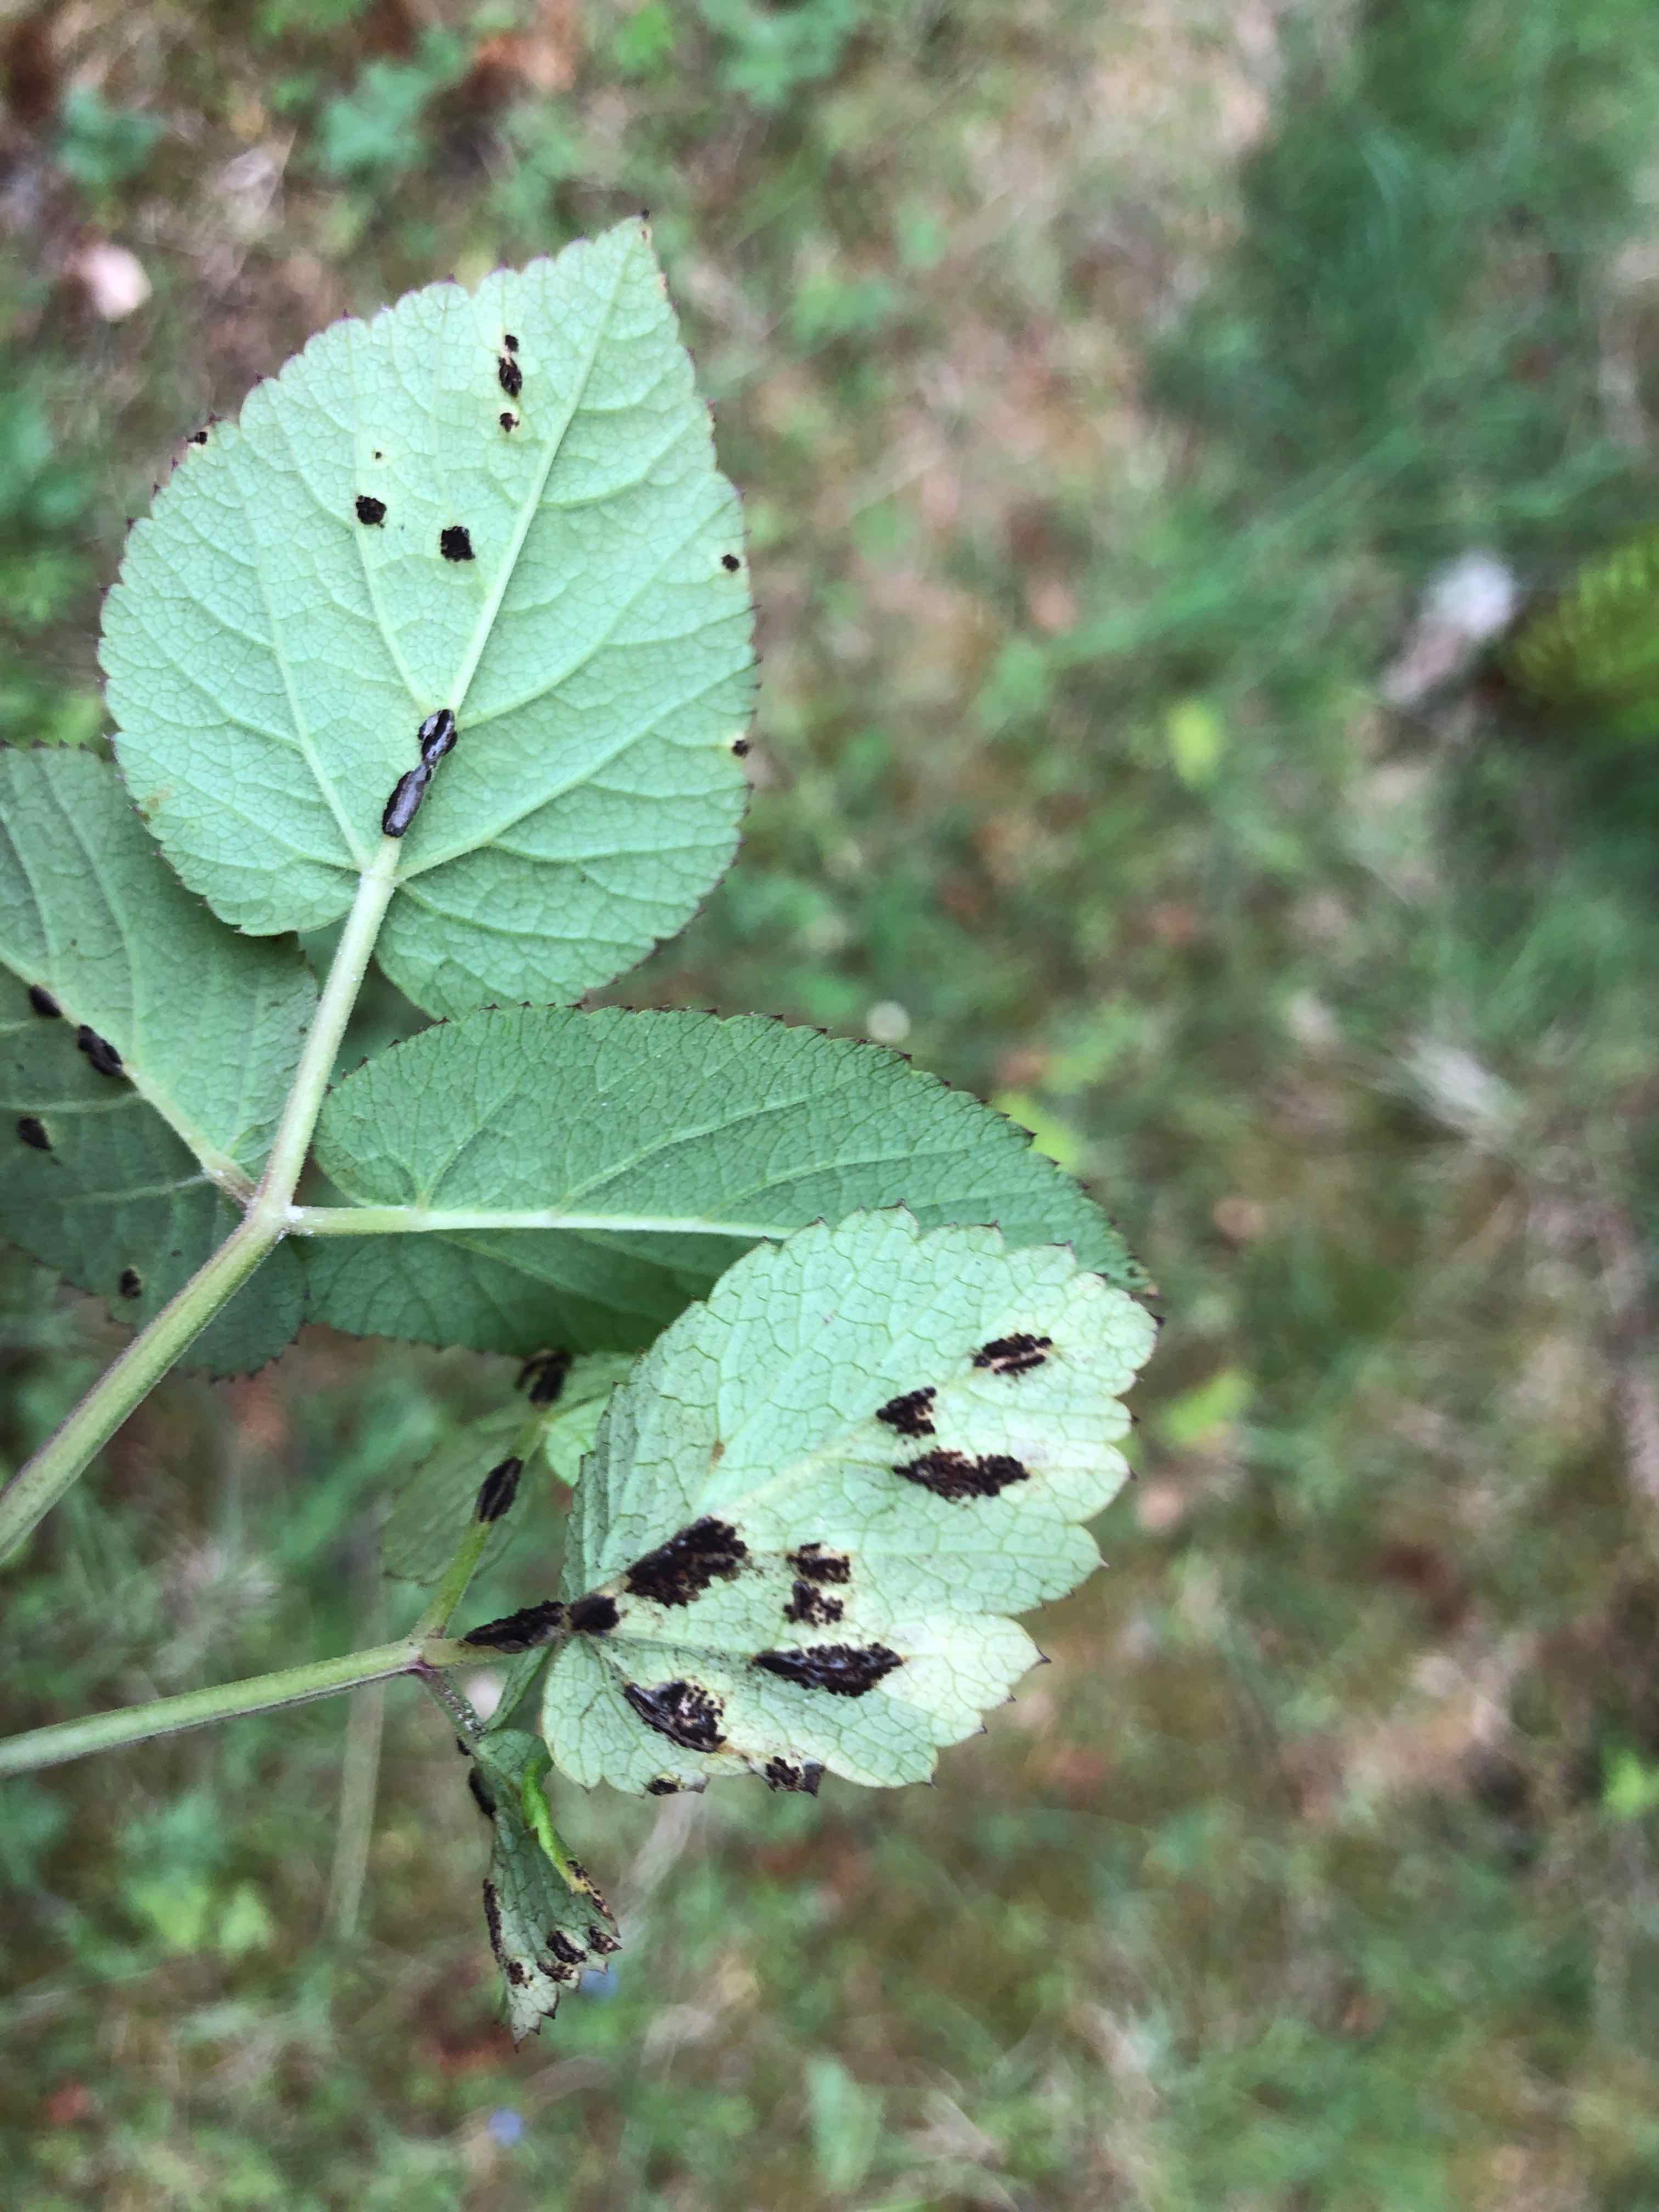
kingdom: Fungi
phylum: Basidiomycota
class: Pucciniomycetes
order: Pucciniales
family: Pucciniaceae
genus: Puccinia
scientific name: Puccinia
